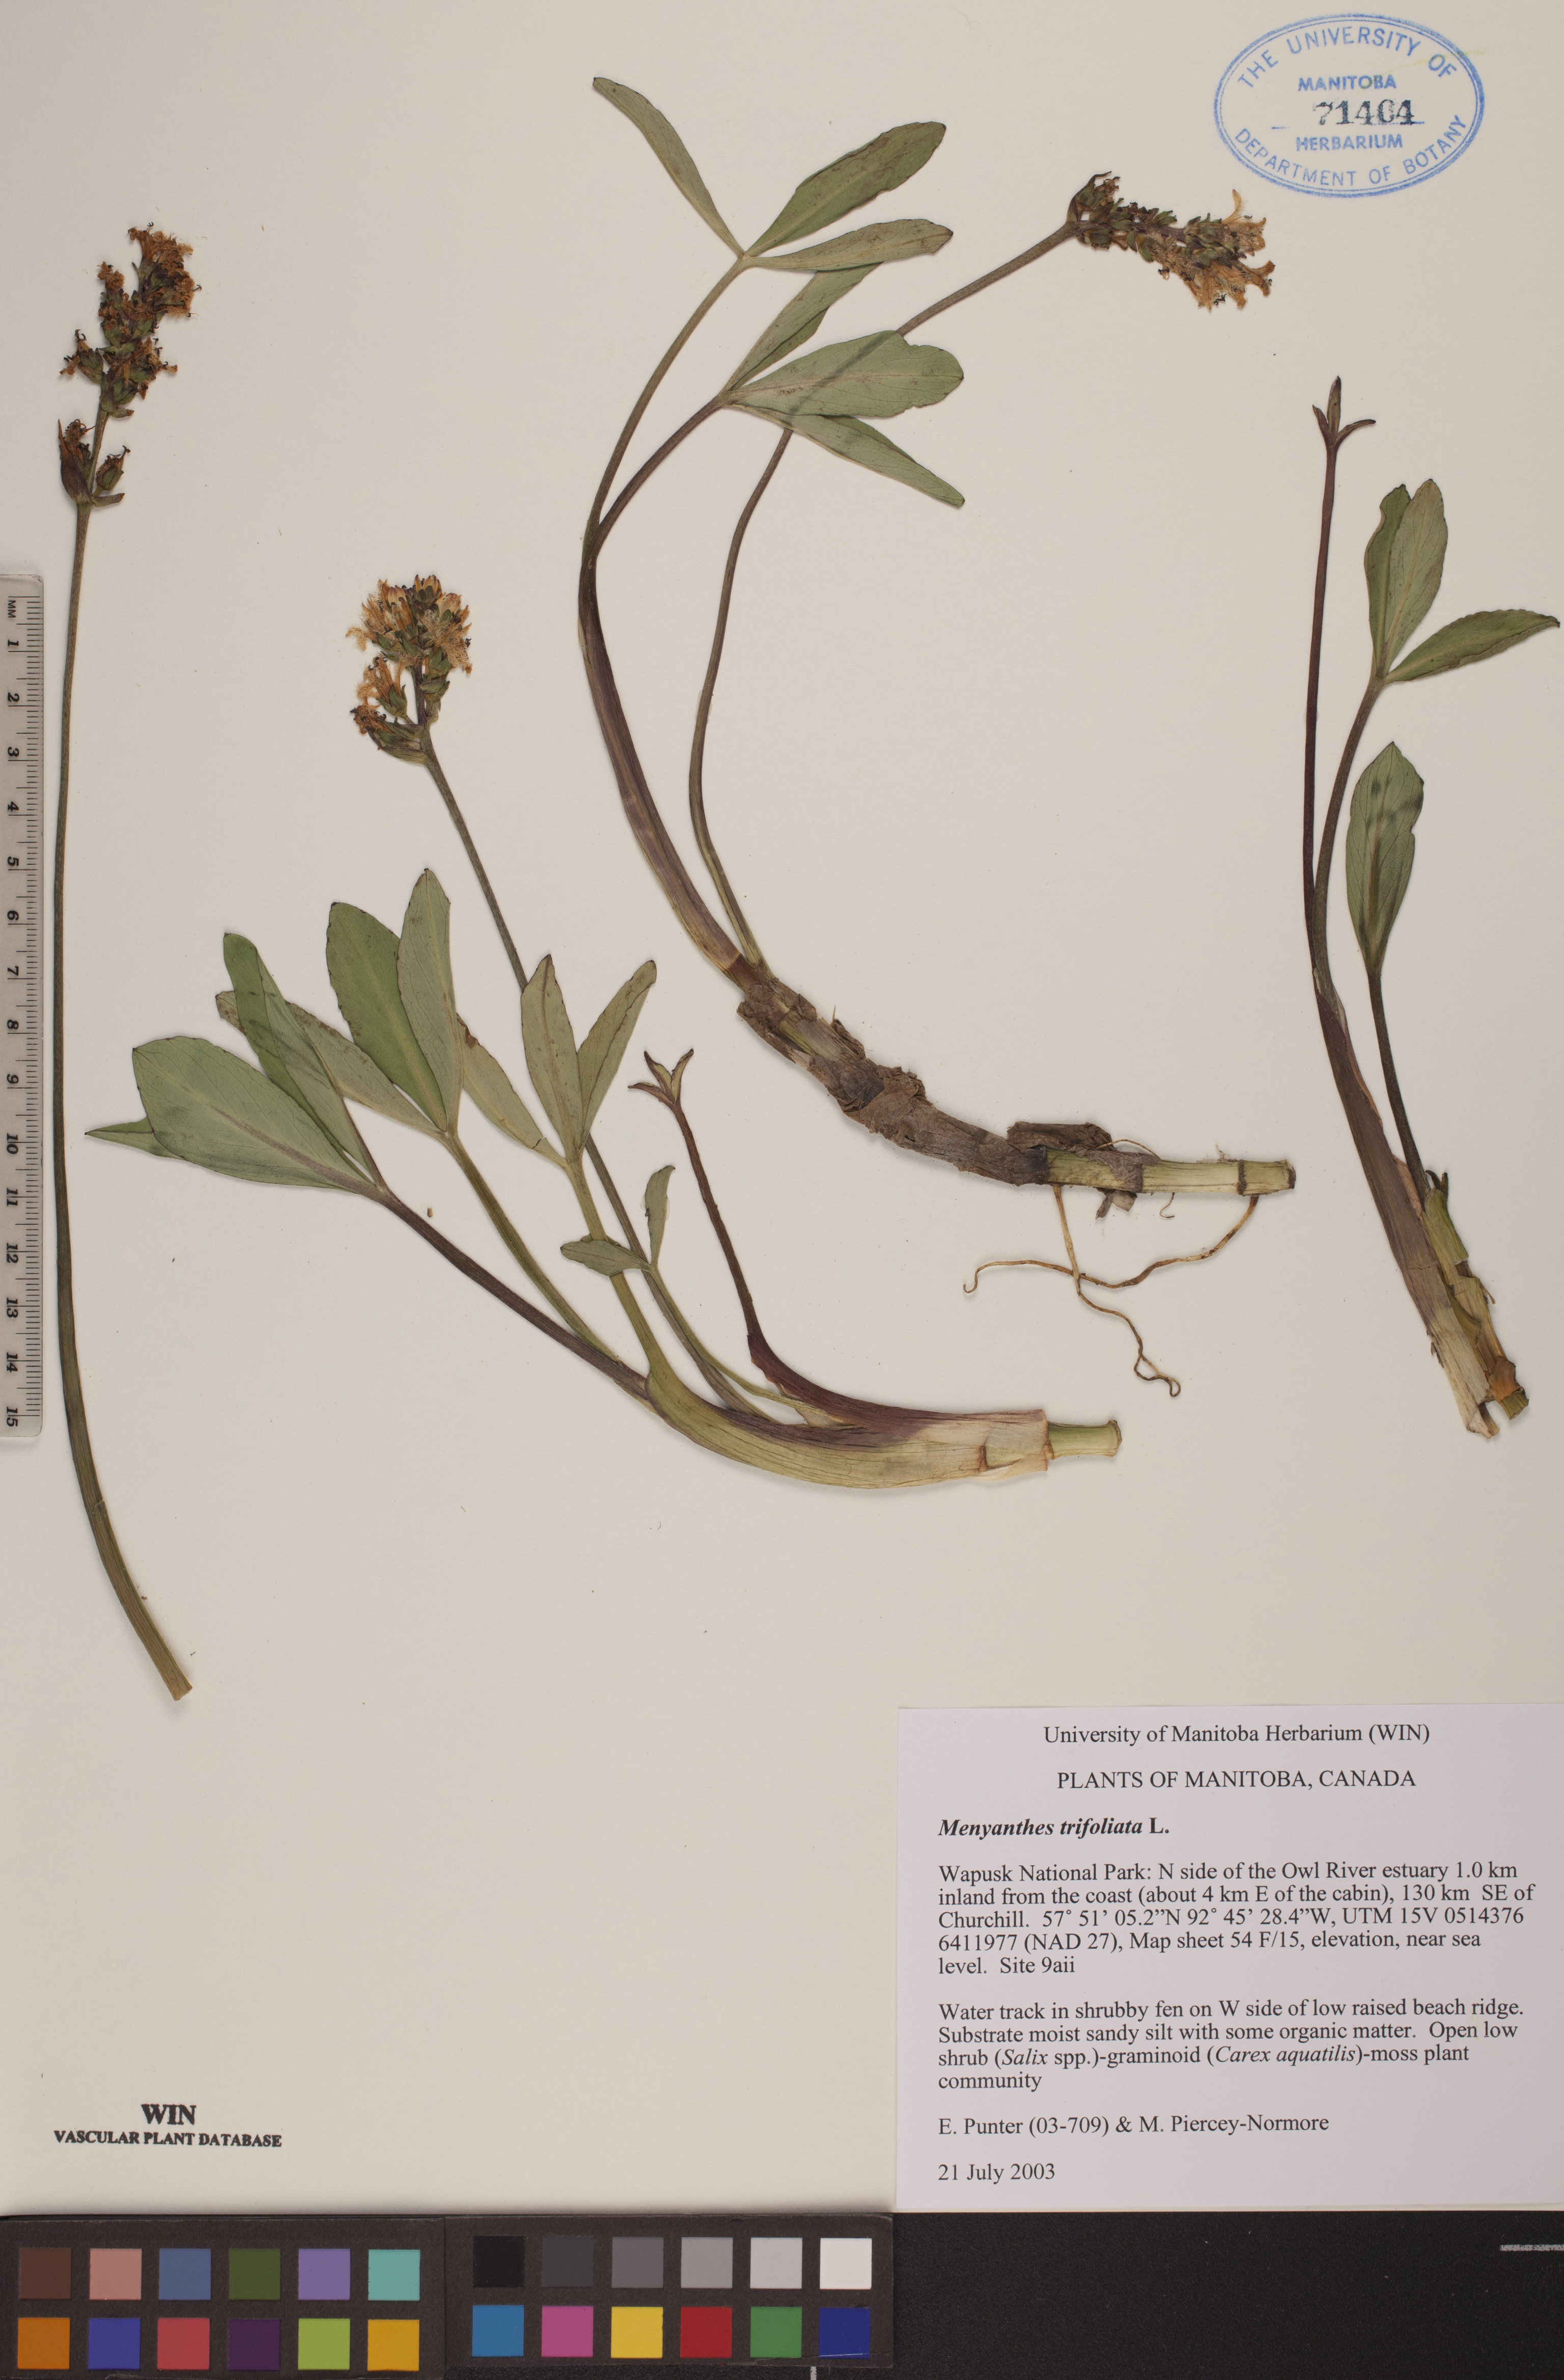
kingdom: Plantae
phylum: Tracheophyta
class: Magnoliopsida
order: Asterales
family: Menyanthaceae
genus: Menyanthes
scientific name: Menyanthes trifoliata
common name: Bogbean
